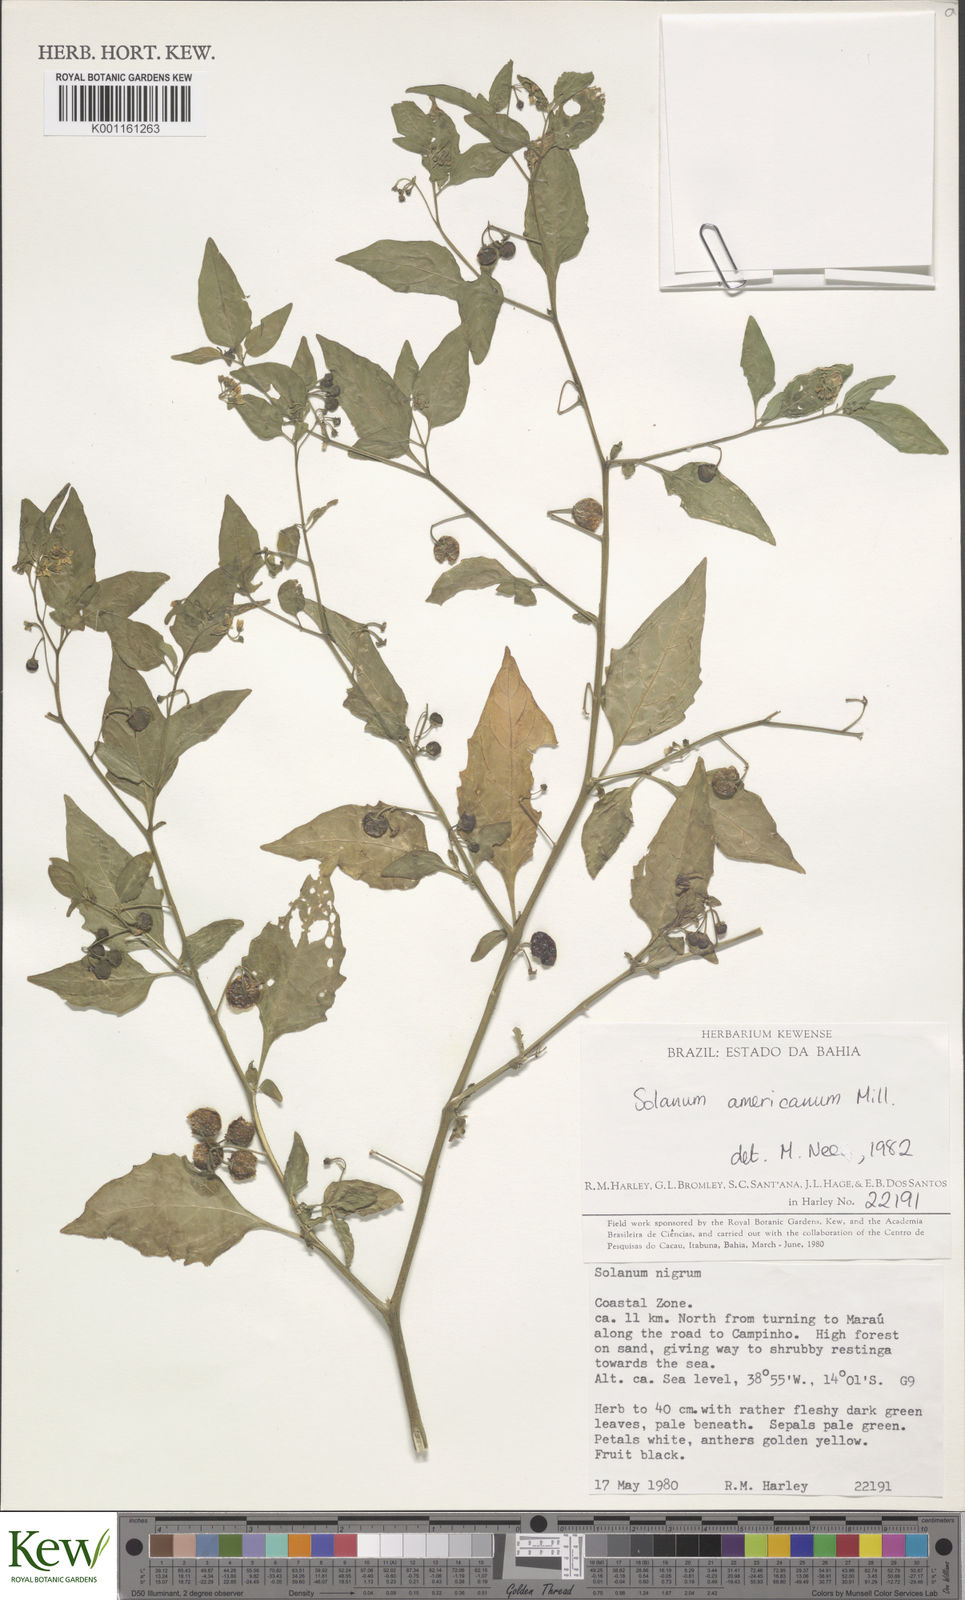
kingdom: Plantae
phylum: Tracheophyta
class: Magnoliopsida
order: Solanales
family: Solanaceae
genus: Solanum
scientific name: Solanum americanum
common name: American black nightshade
